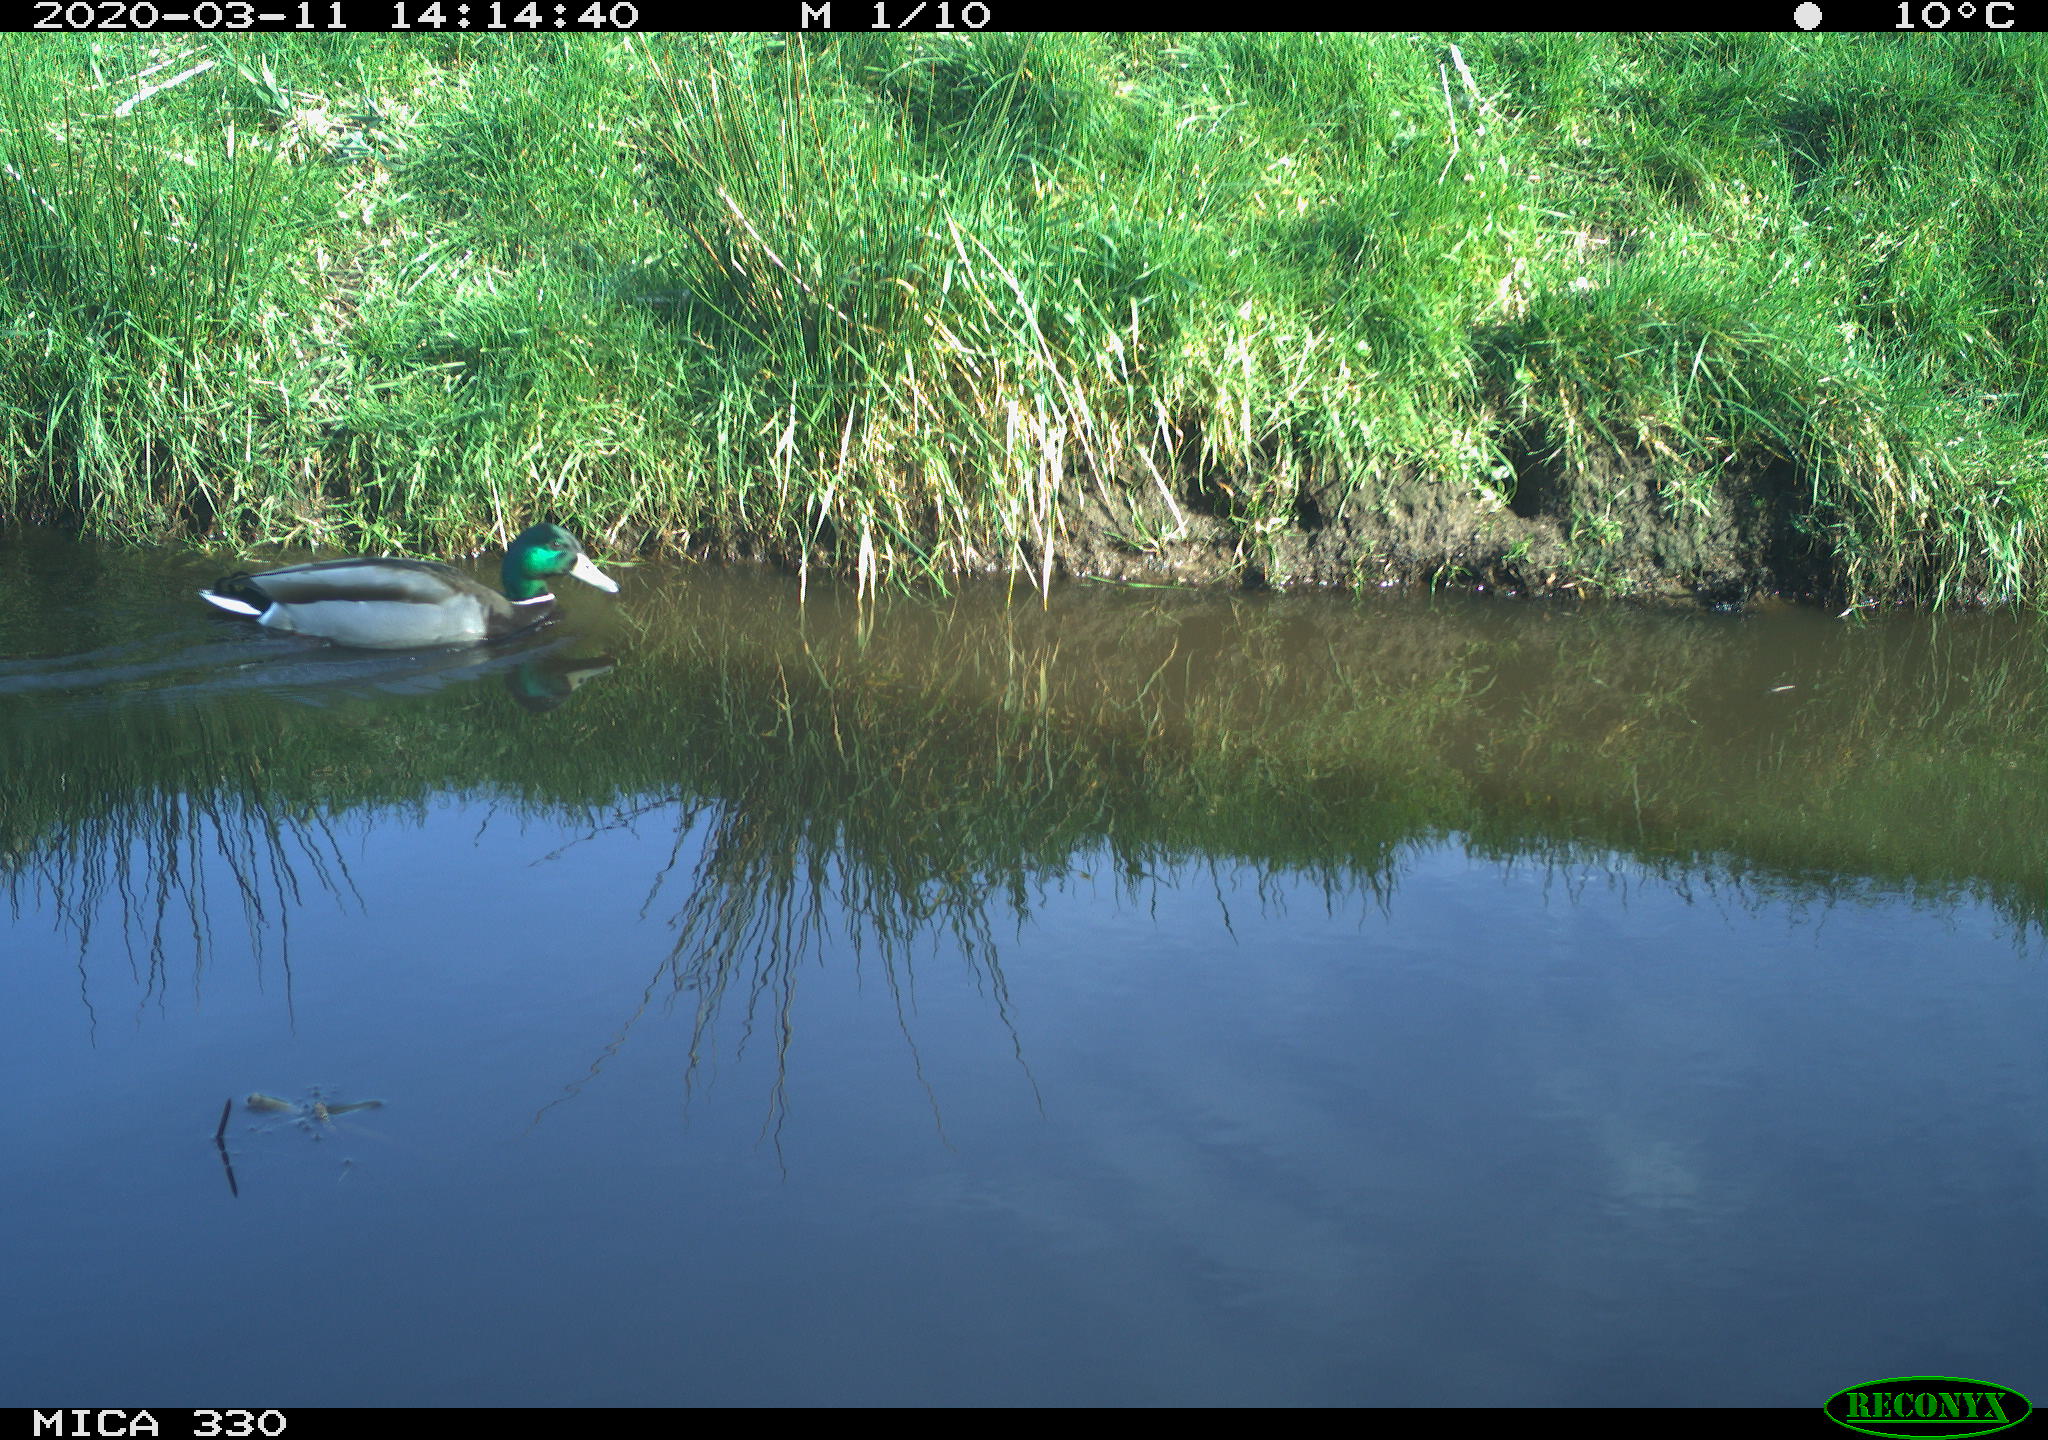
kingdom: Animalia
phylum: Chordata
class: Aves
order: Anseriformes
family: Anatidae
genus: Anas
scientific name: Anas platyrhynchos
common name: Mallard
